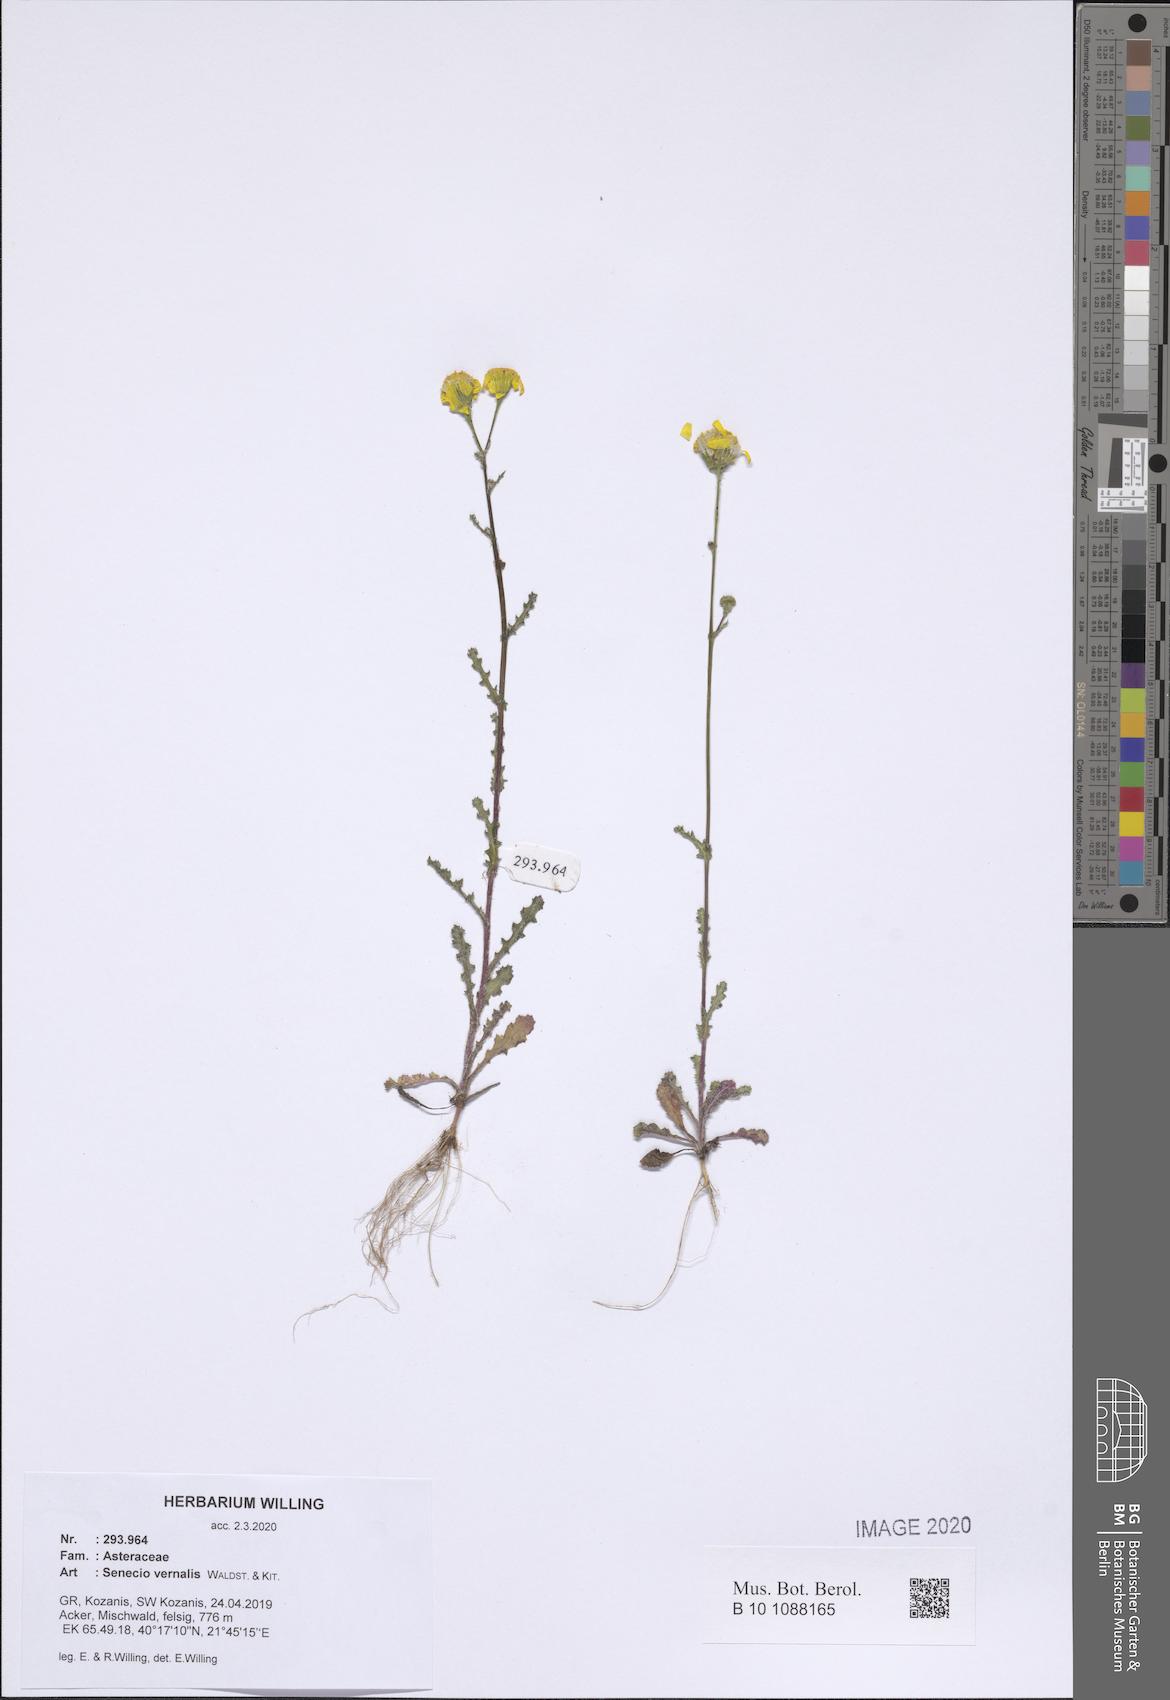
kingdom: Plantae
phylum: Tracheophyta
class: Magnoliopsida
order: Asterales
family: Asteraceae
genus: Senecio
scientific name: Senecio vernalis
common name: Eastern groundsel
